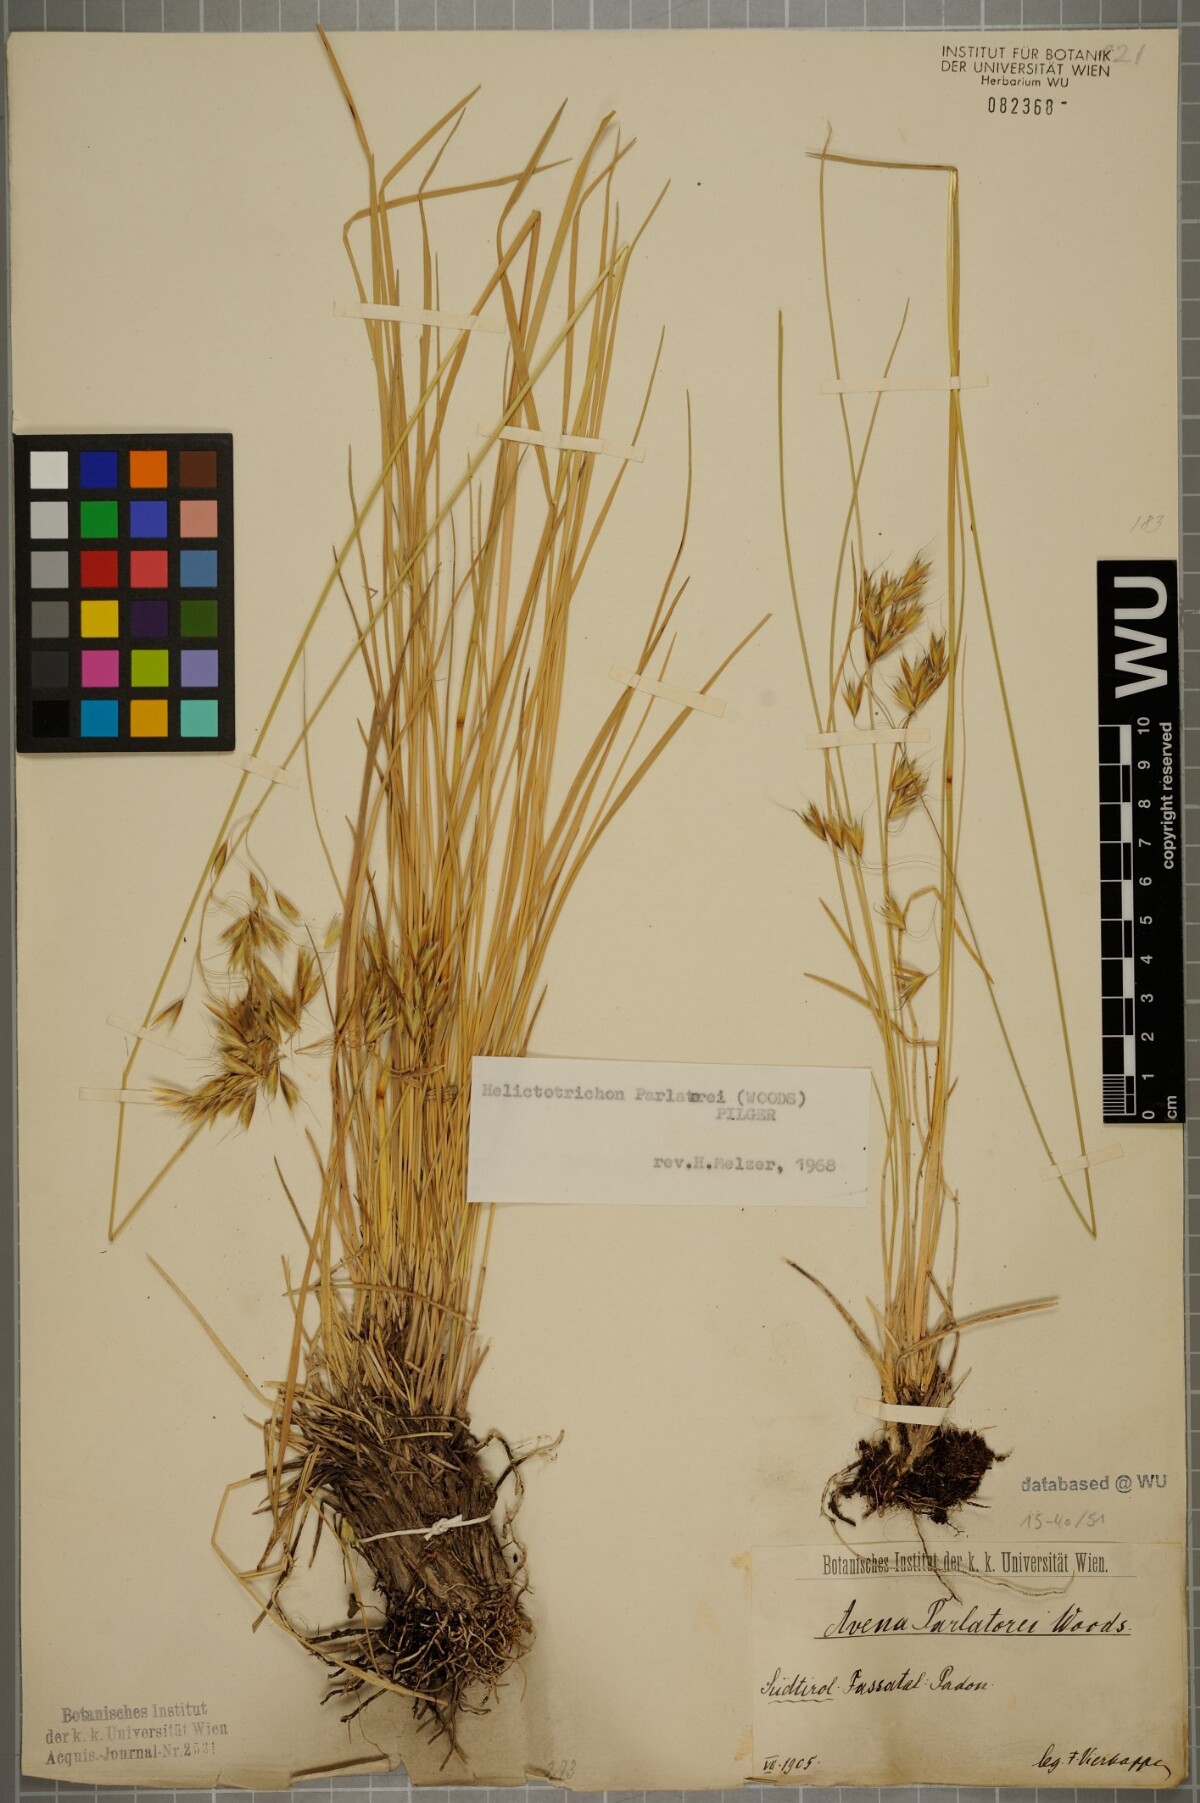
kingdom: Plantae
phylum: Tracheophyta
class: Liliopsida
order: Poales
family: Poaceae
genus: Helictotrichon
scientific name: Helictotrichon parlatorei
